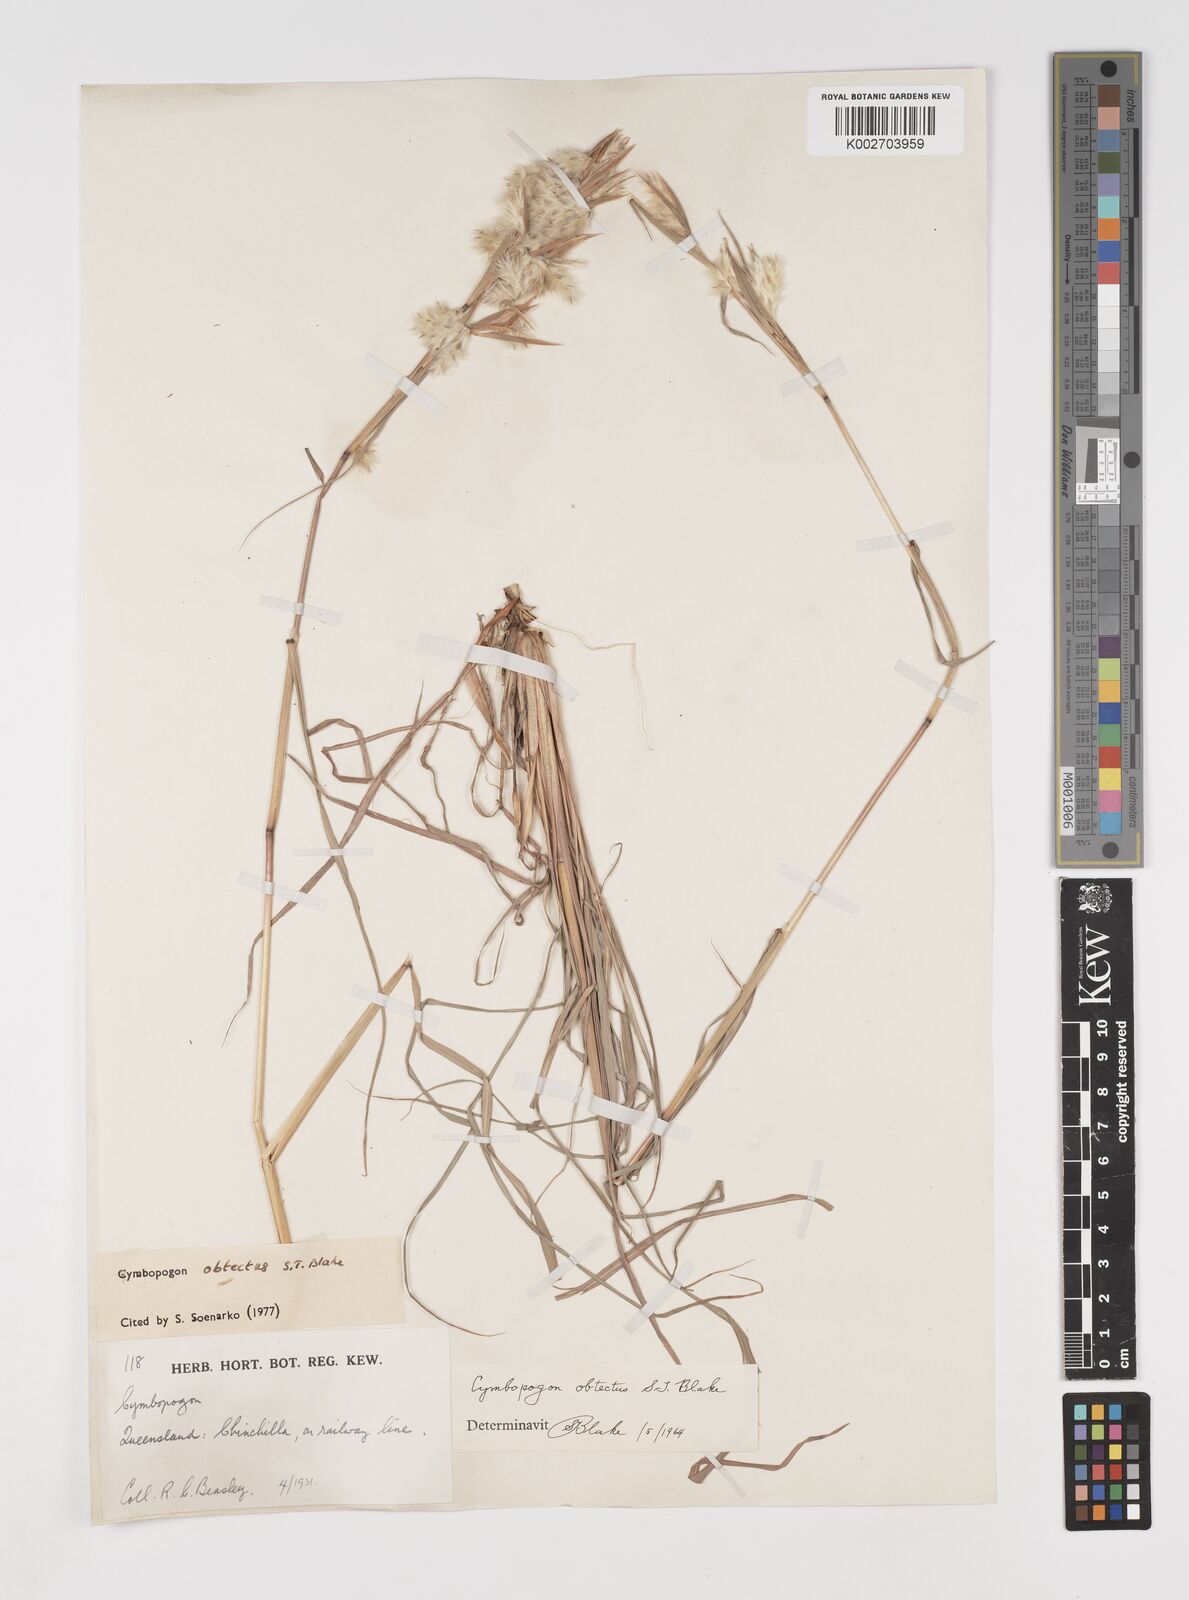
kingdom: Plantae
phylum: Tracheophyta
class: Liliopsida
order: Poales
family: Poaceae
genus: Cymbopogon
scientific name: Cymbopogon obtectus
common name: Silky heads
